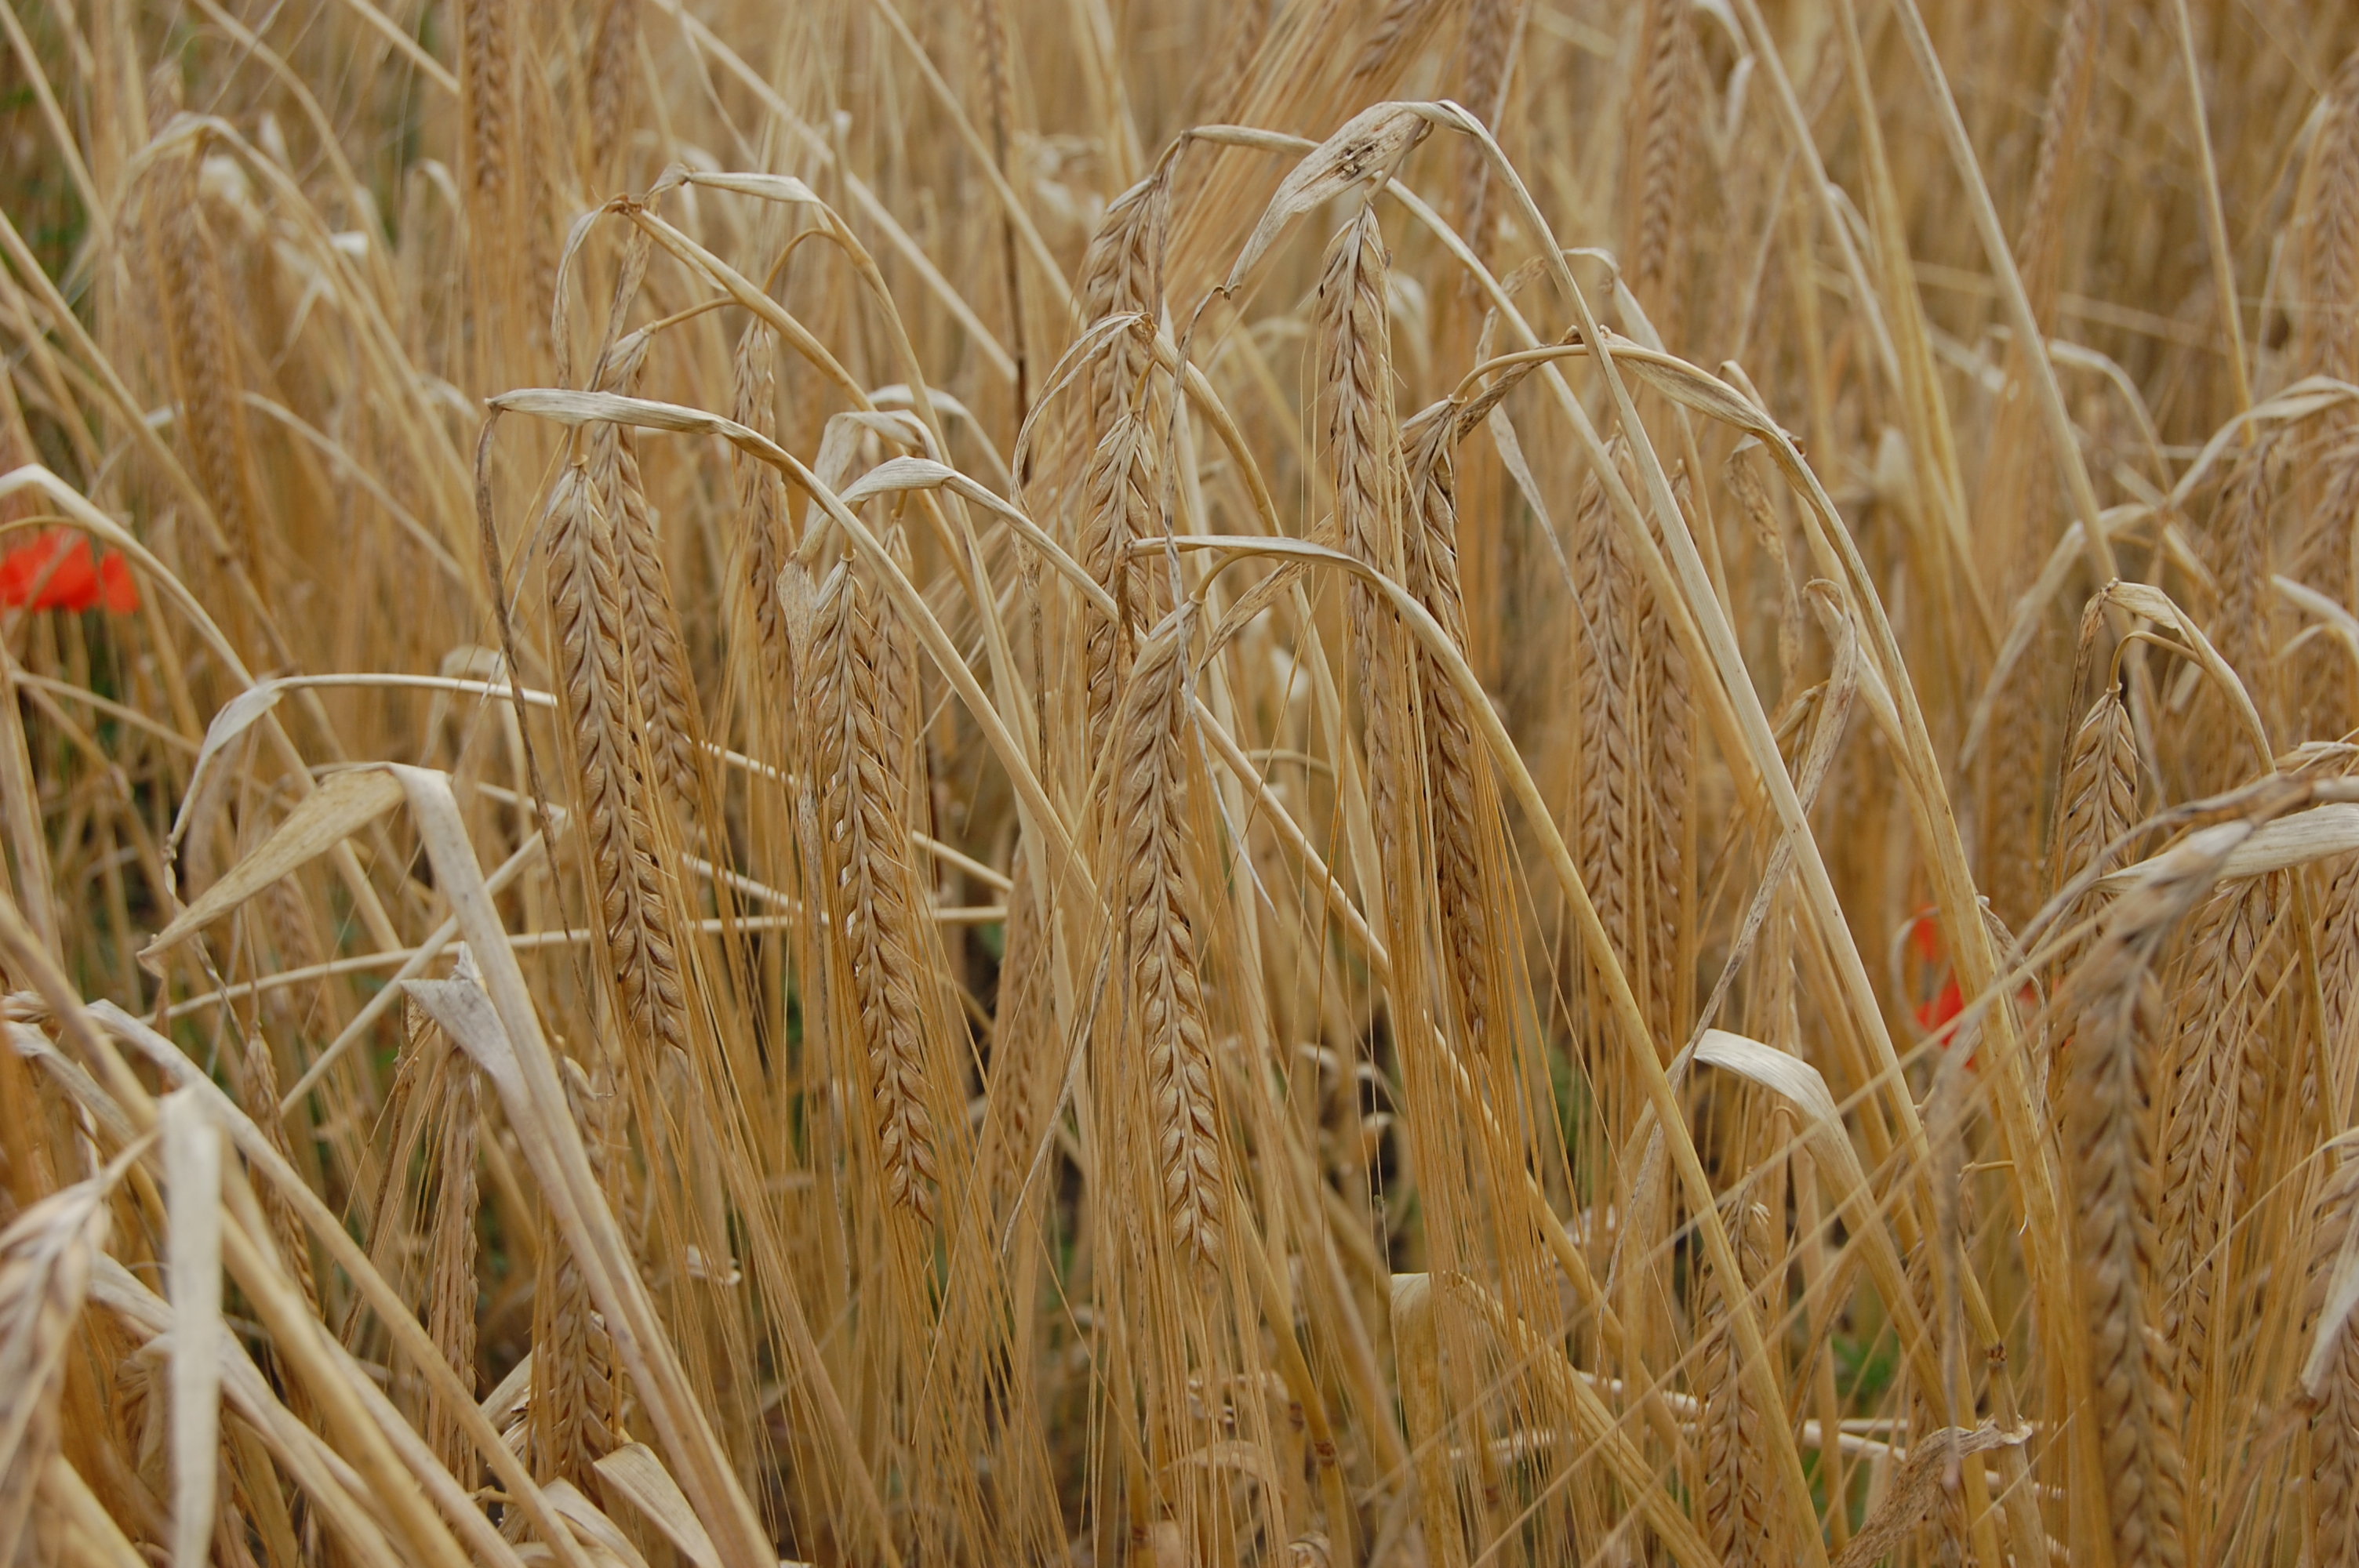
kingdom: Plantae
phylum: Tracheophyta
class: Liliopsida
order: Poales
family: Poaceae
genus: Hordeum
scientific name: Hordeum vulgare
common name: Common barley
